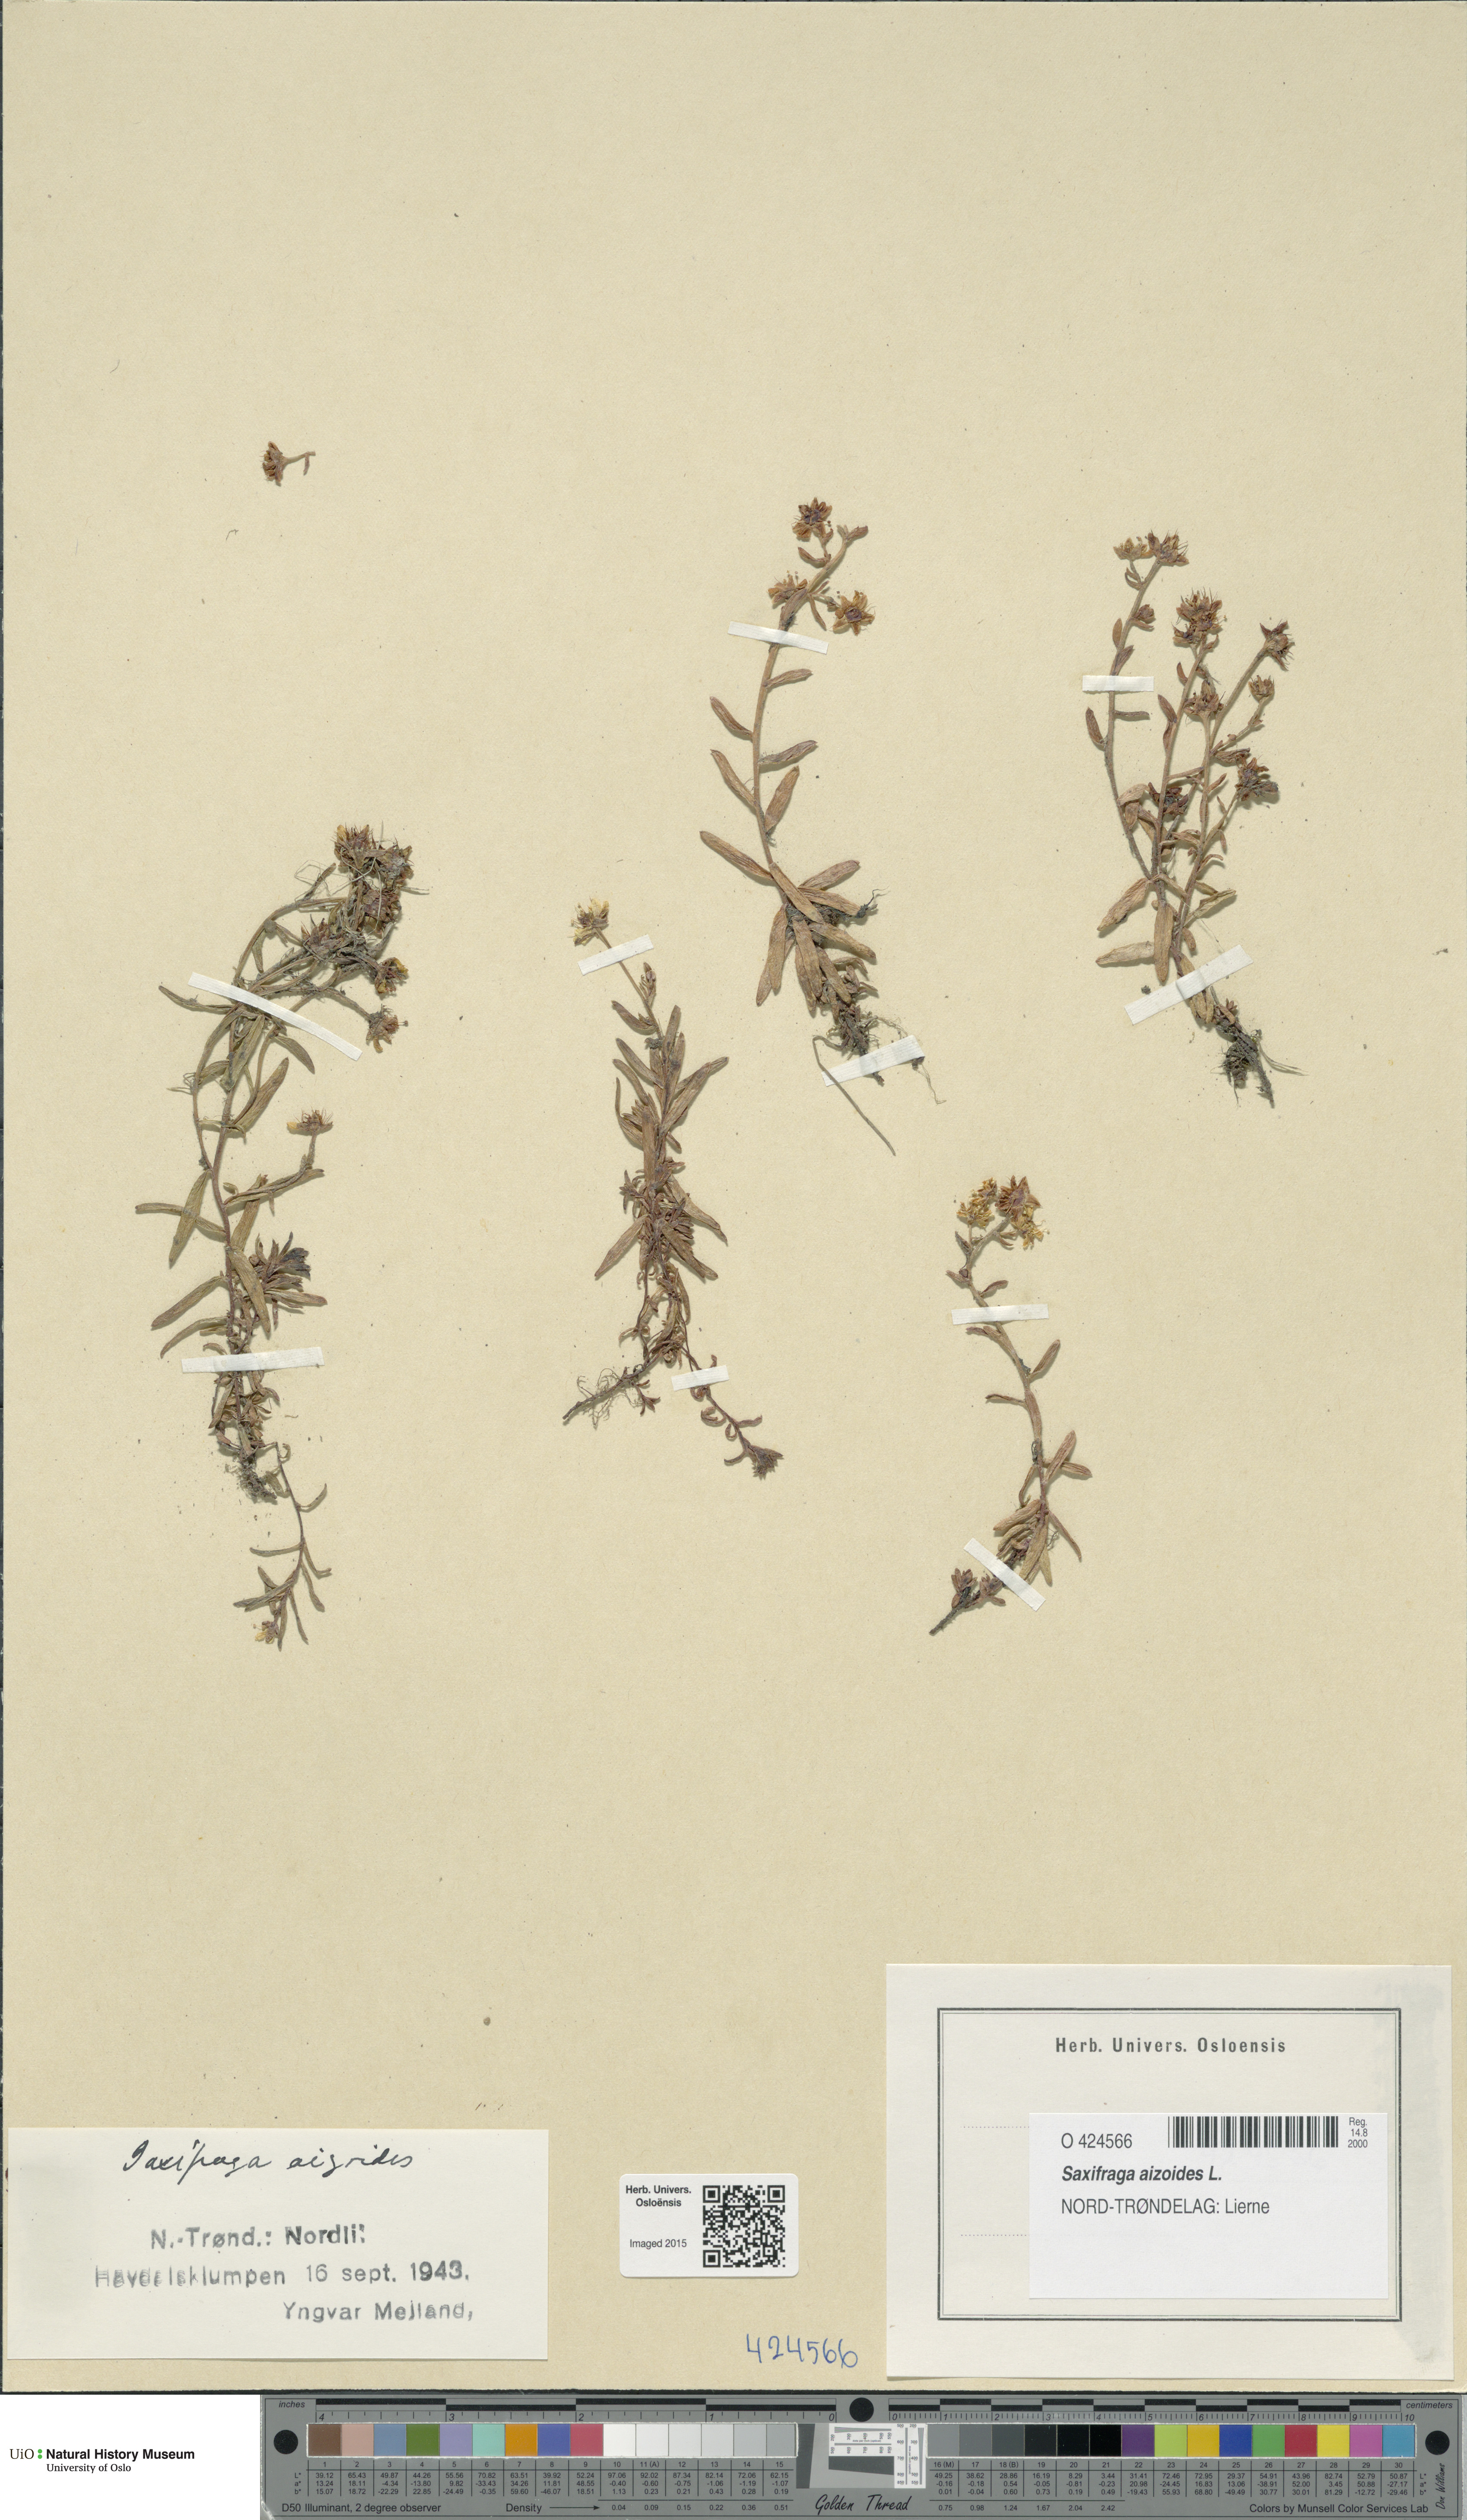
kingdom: Plantae
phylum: Tracheophyta
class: Magnoliopsida
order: Saxifragales
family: Saxifragaceae
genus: Saxifraga
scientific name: Saxifraga aizoides
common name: Yellow mountain saxifrage
